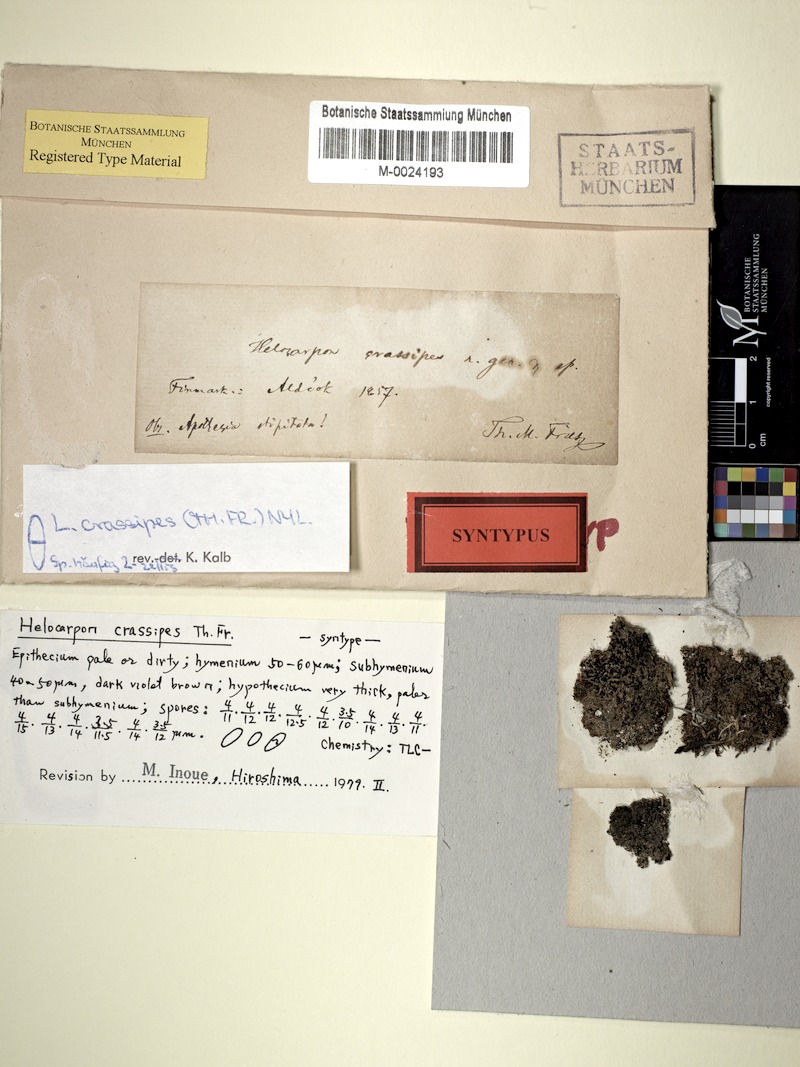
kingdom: Fungi
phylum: Ascomycota
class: Lecanoromycetes
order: Lecanorales
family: Helocarpaceae
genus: Helocarpon
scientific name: Helocarpon crassipes
